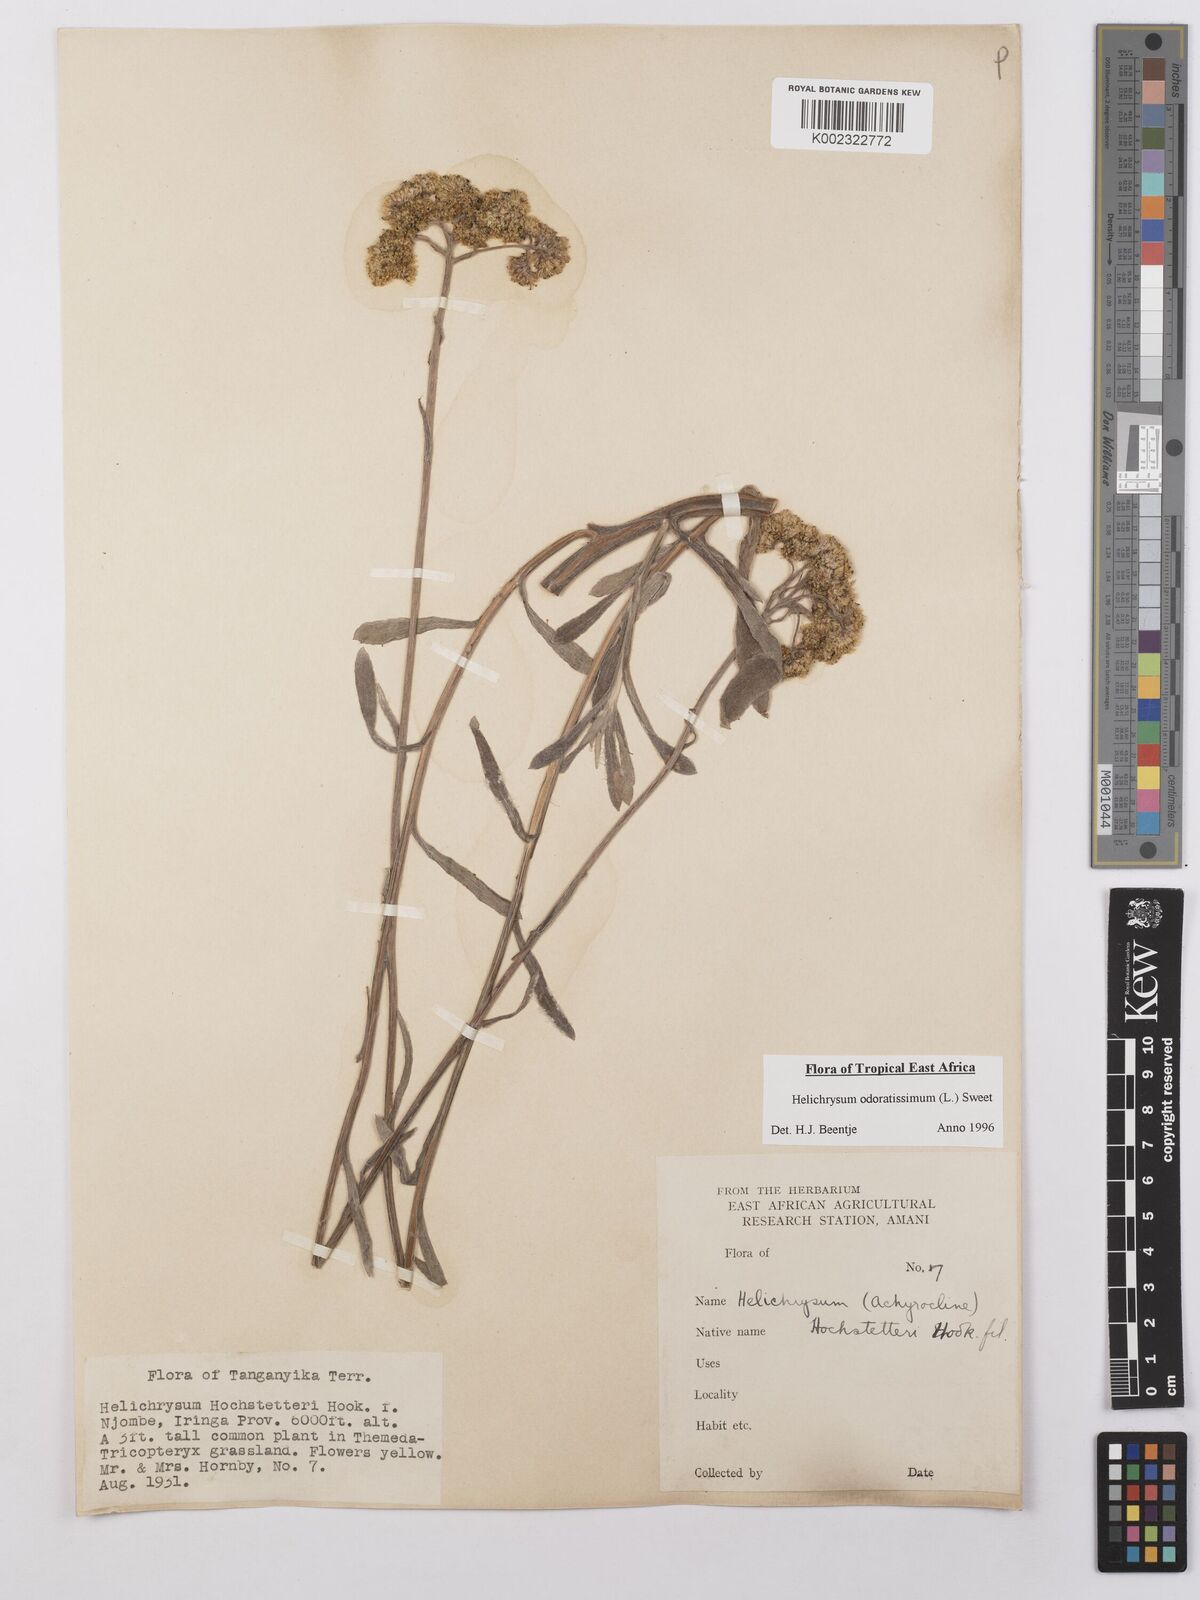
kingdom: Plantae
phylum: Tracheophyta
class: Magnoliopsida
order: Asterales
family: Asteraceae
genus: Helichrysum
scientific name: Helichrysum odoratissimum
